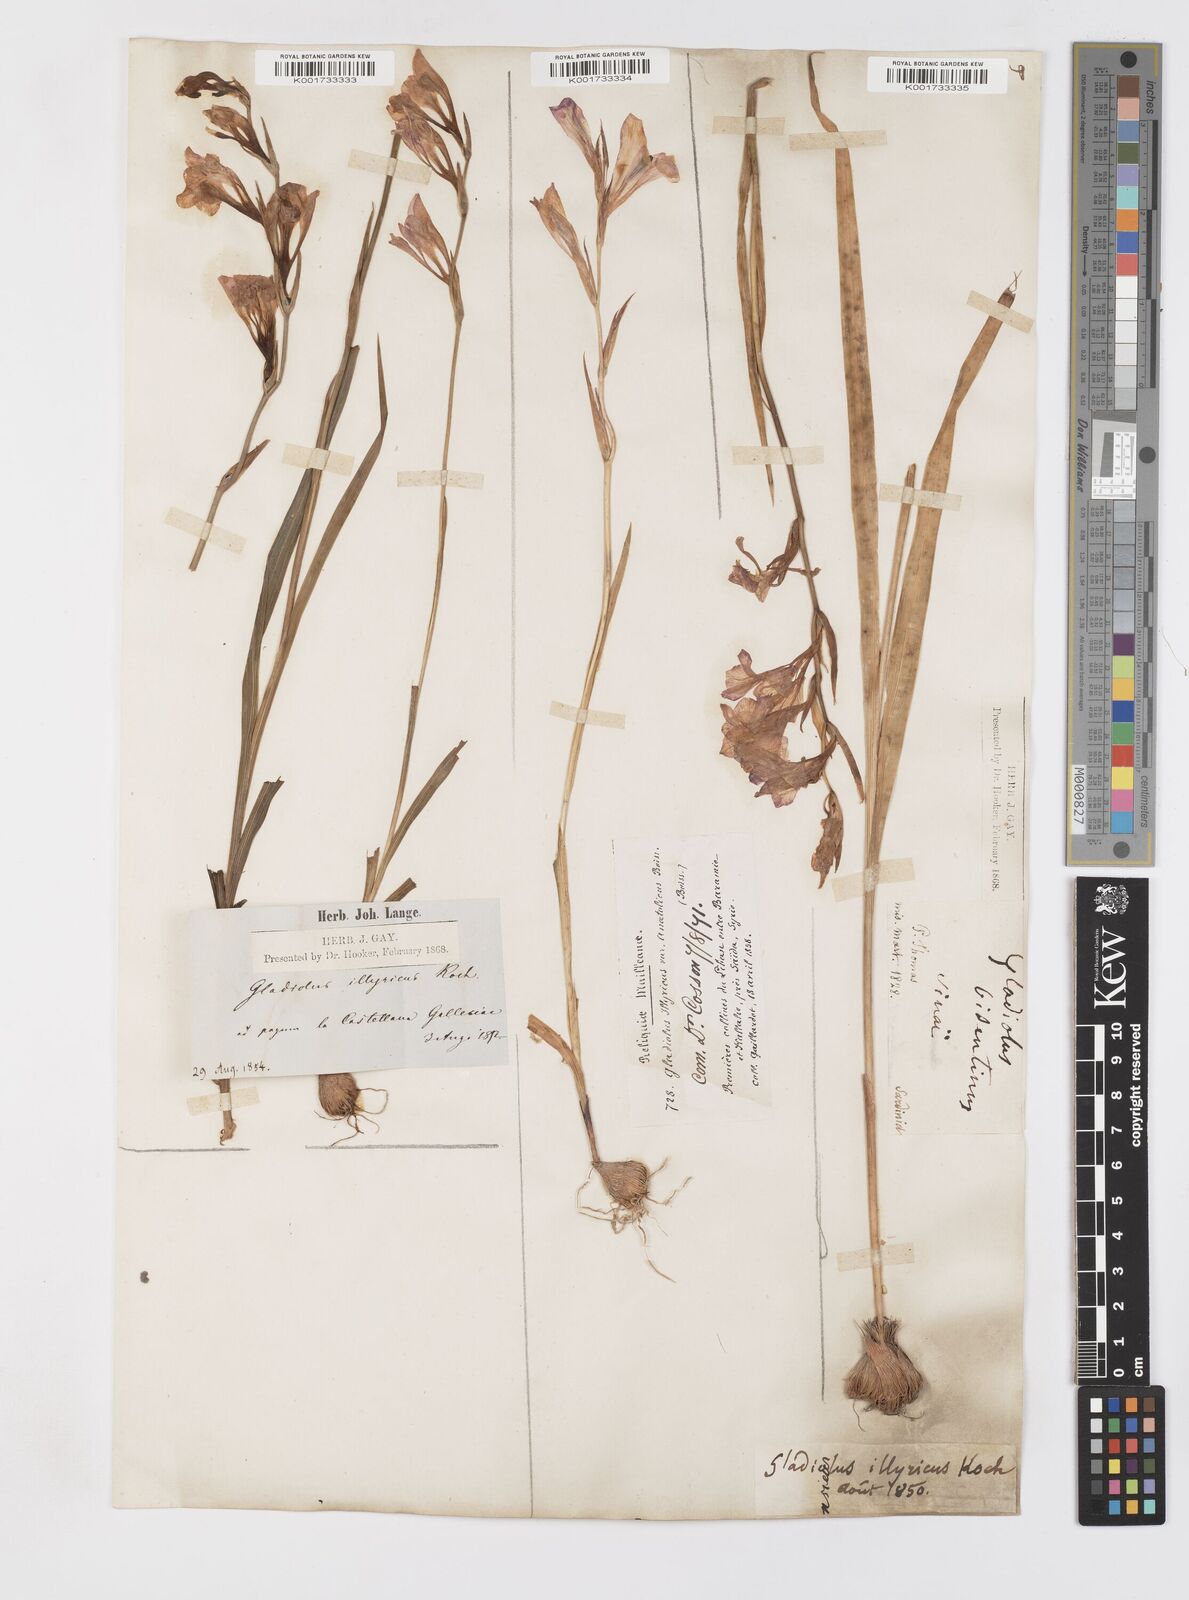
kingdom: Plantae
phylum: Tracheophyta
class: Liliopsida
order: Asparagales
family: Iridaceae
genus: Gladiolus
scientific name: Gladiolus illyricus
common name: Wild gladiolus
